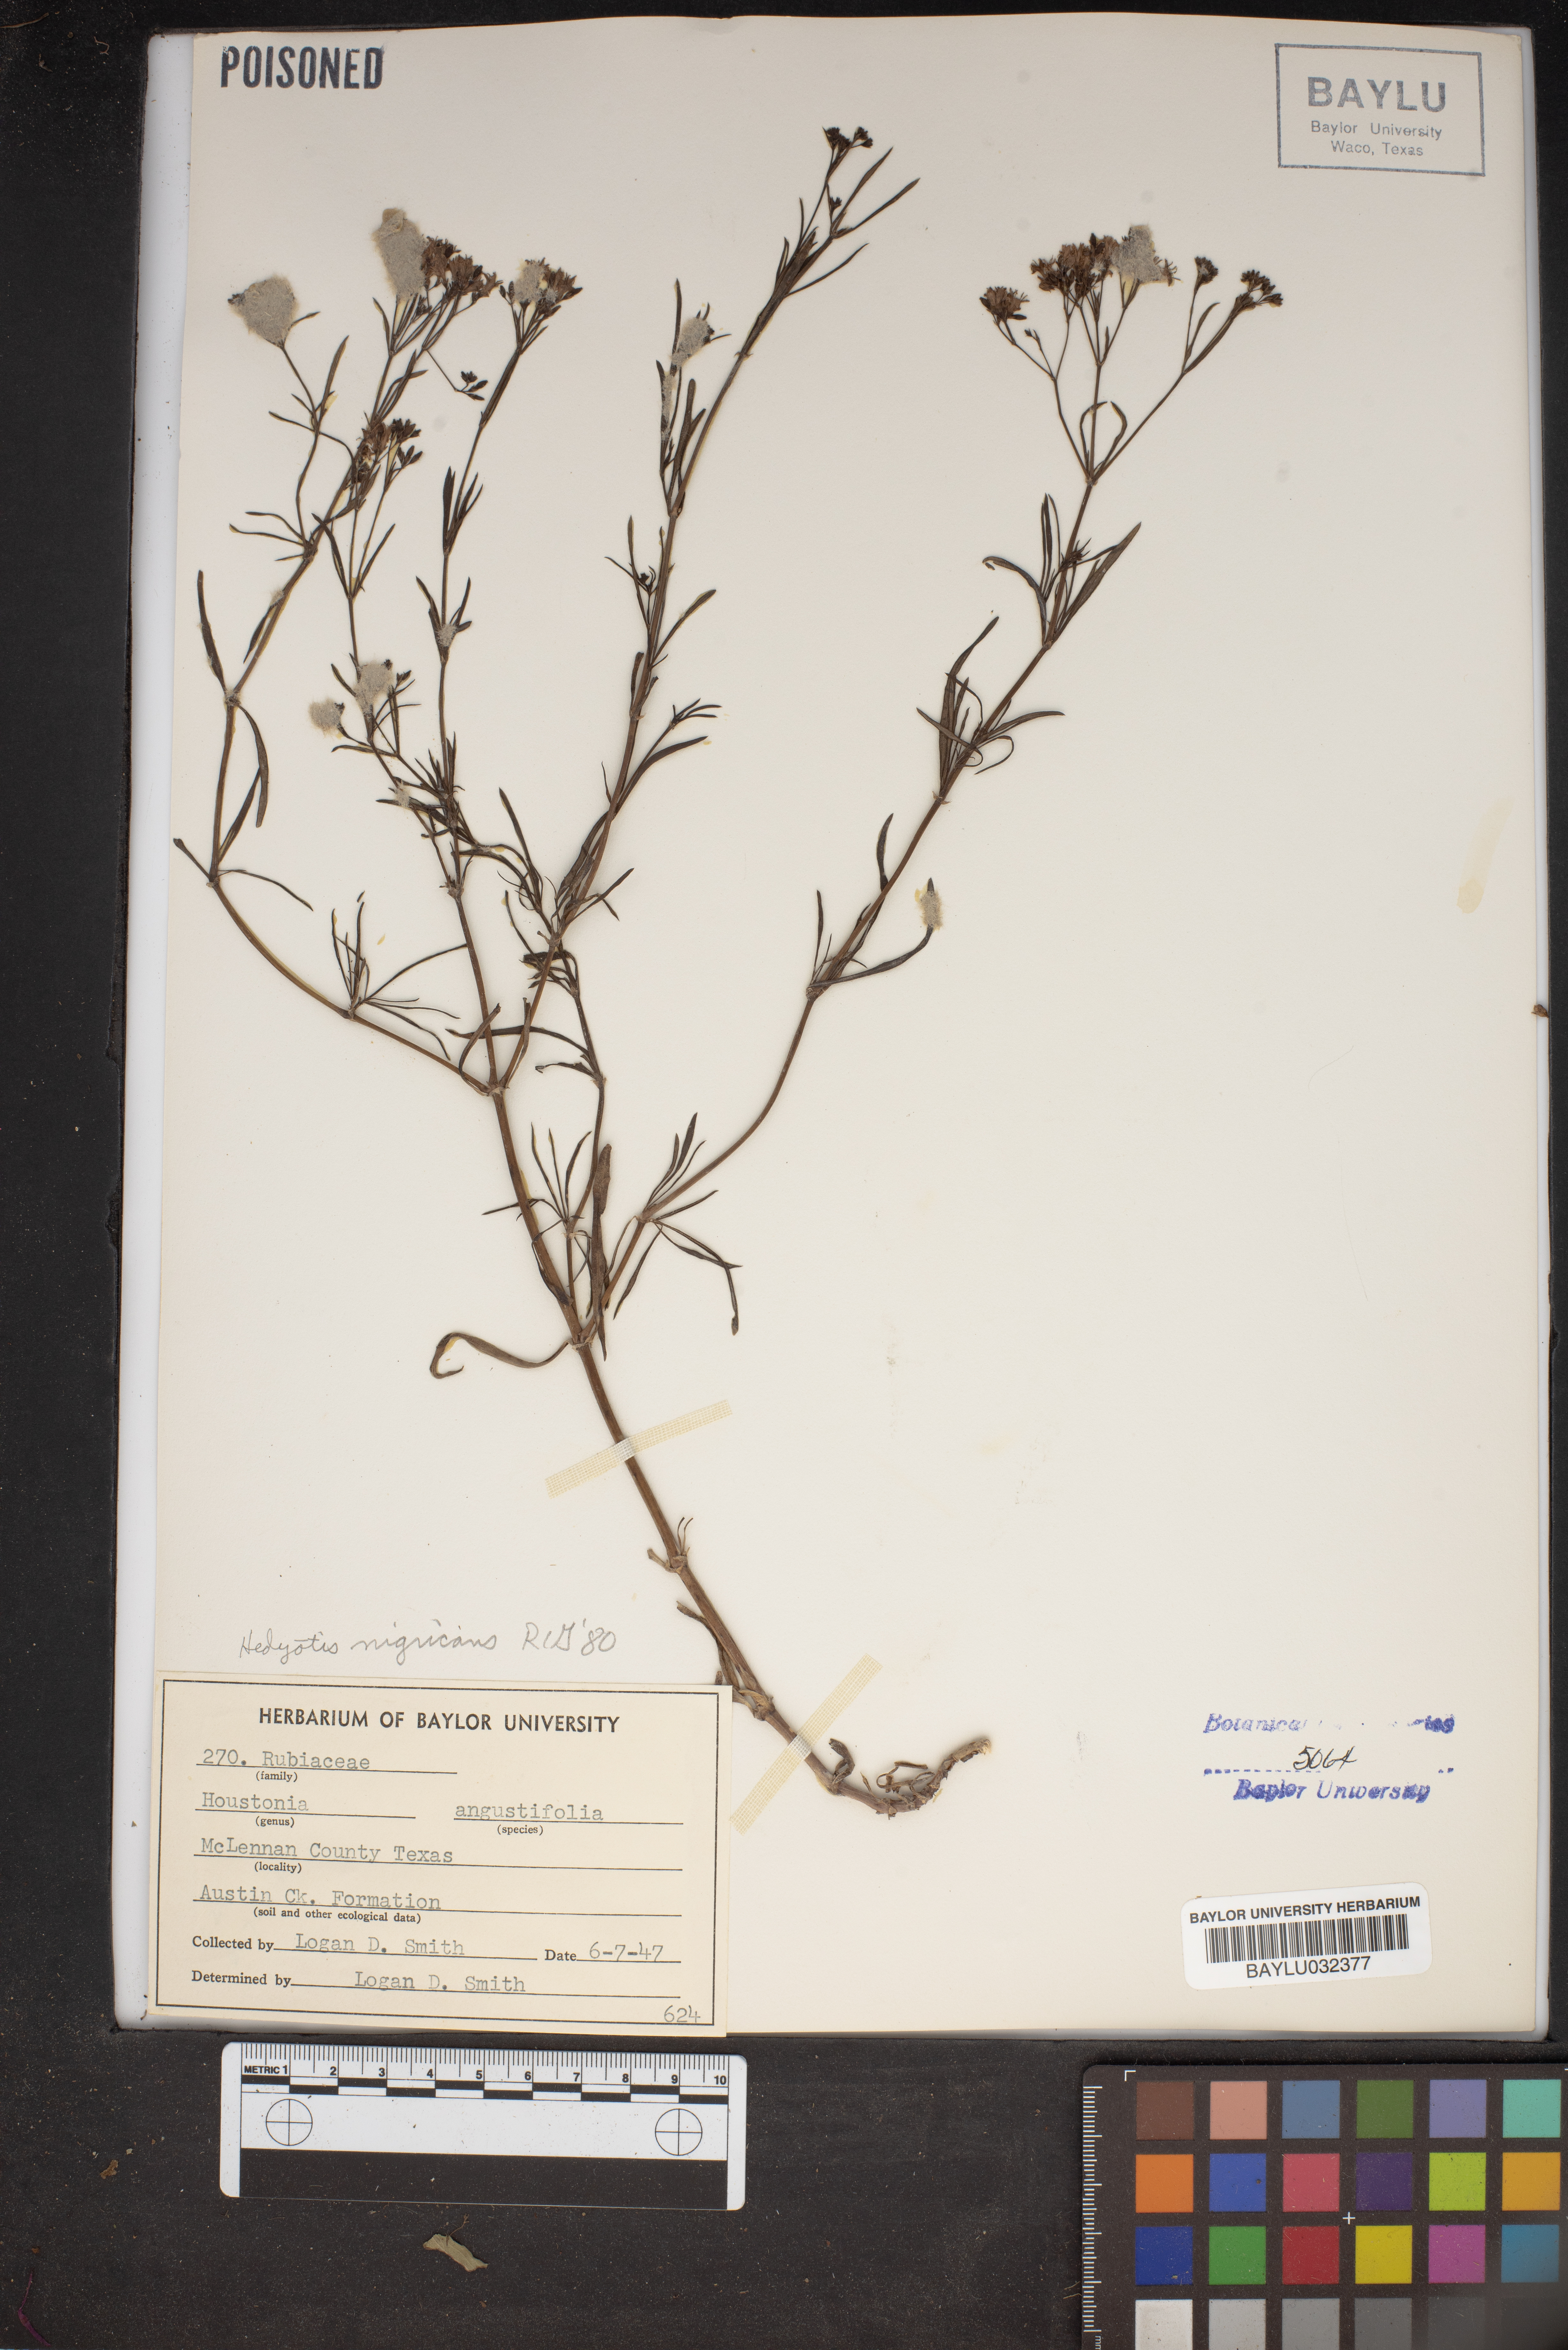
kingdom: Plantae
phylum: Tracheophyta
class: Magnoliopsida
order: Gentianales
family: Rubiaceae
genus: Stenaria
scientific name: Stenaria nigricans
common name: Diamondflowers
